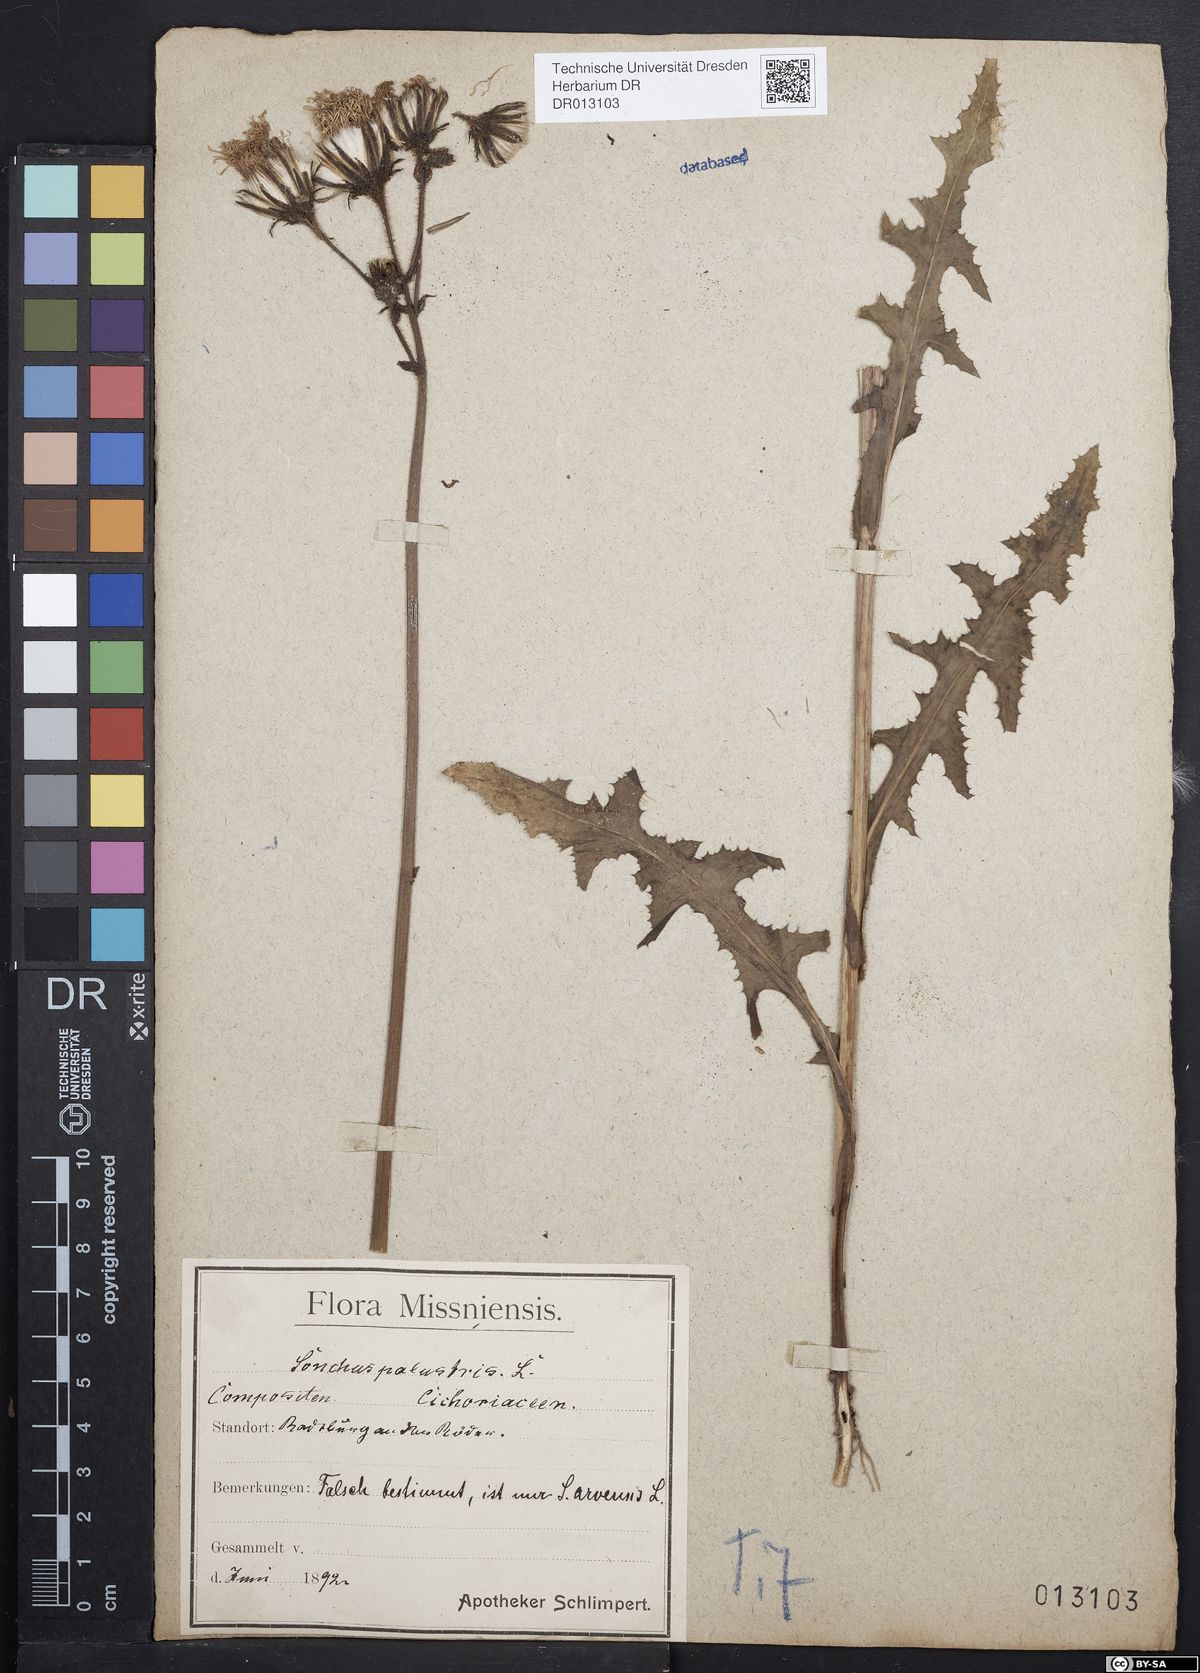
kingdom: Plantae
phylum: Tracheophyta
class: Magnoliopsida
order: Asterales
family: Asteraceae
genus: Sonchus
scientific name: Sonchus arvensis
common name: Perennial sow-thistle
